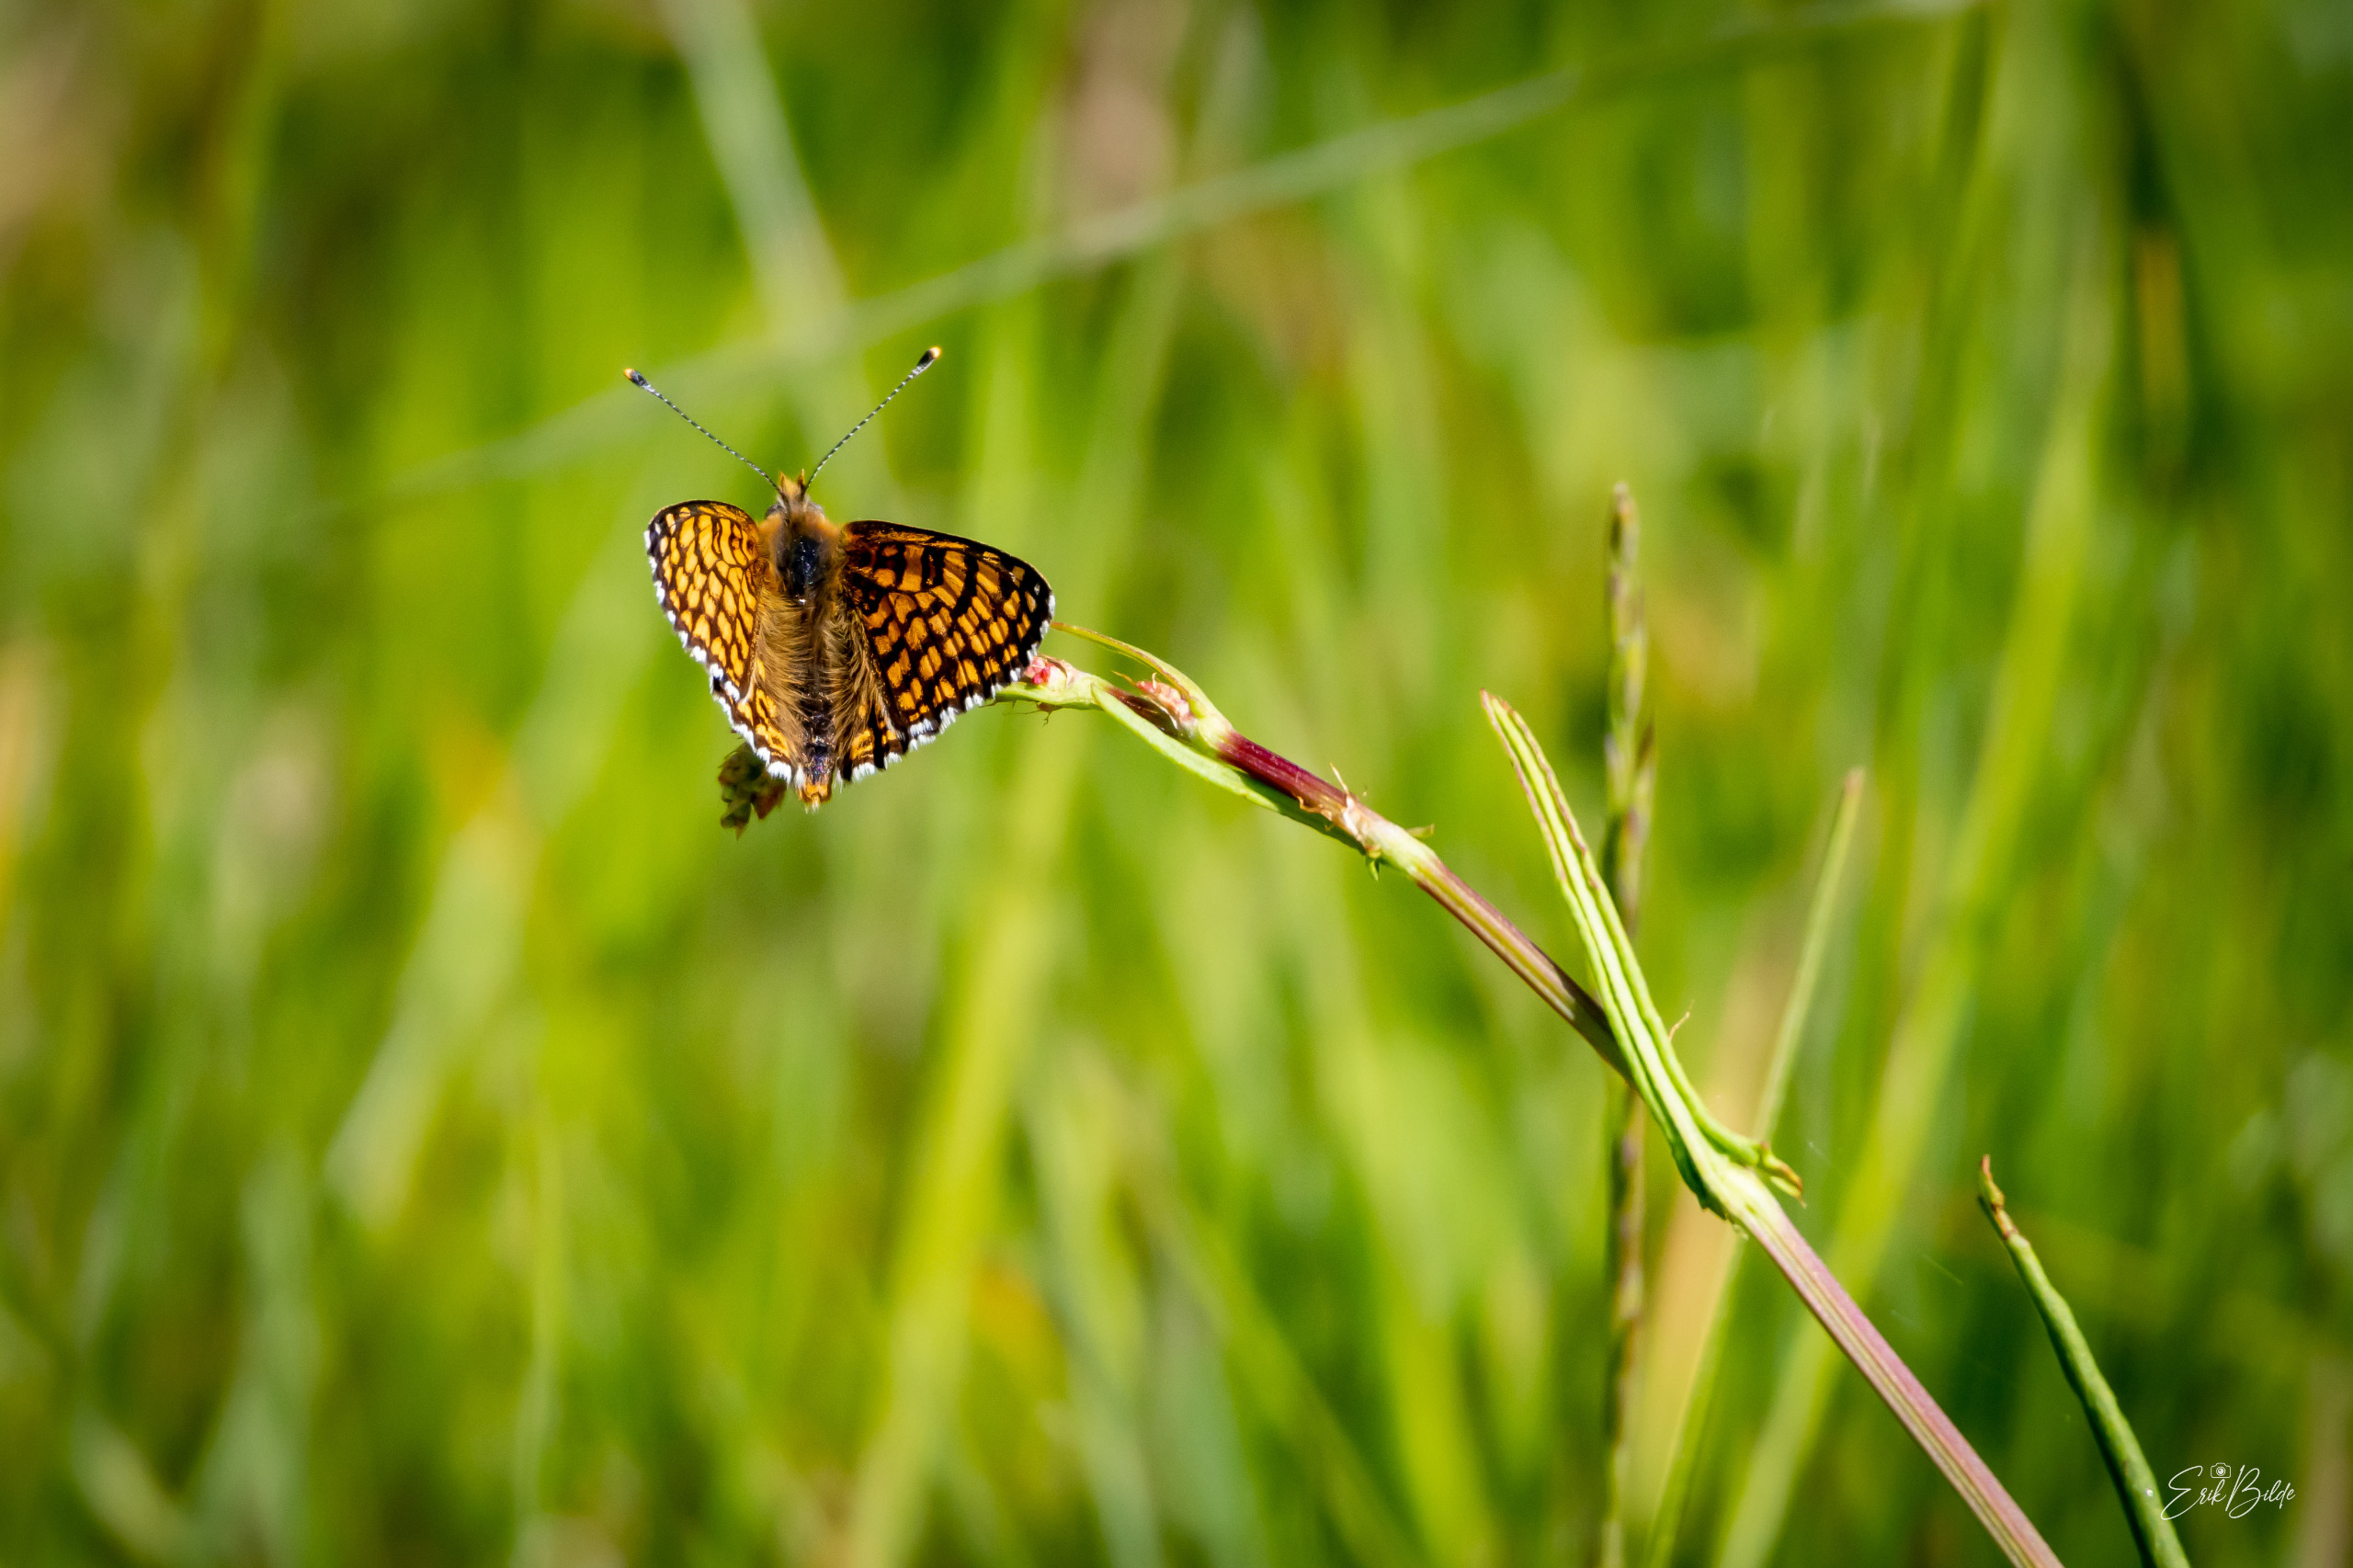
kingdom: Animalia
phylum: Arthropoda
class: Insecta
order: Lepidoptera
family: Nymphalidae
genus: Melitaea
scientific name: Melitaea cinxia
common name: Okkergul pletvinge
